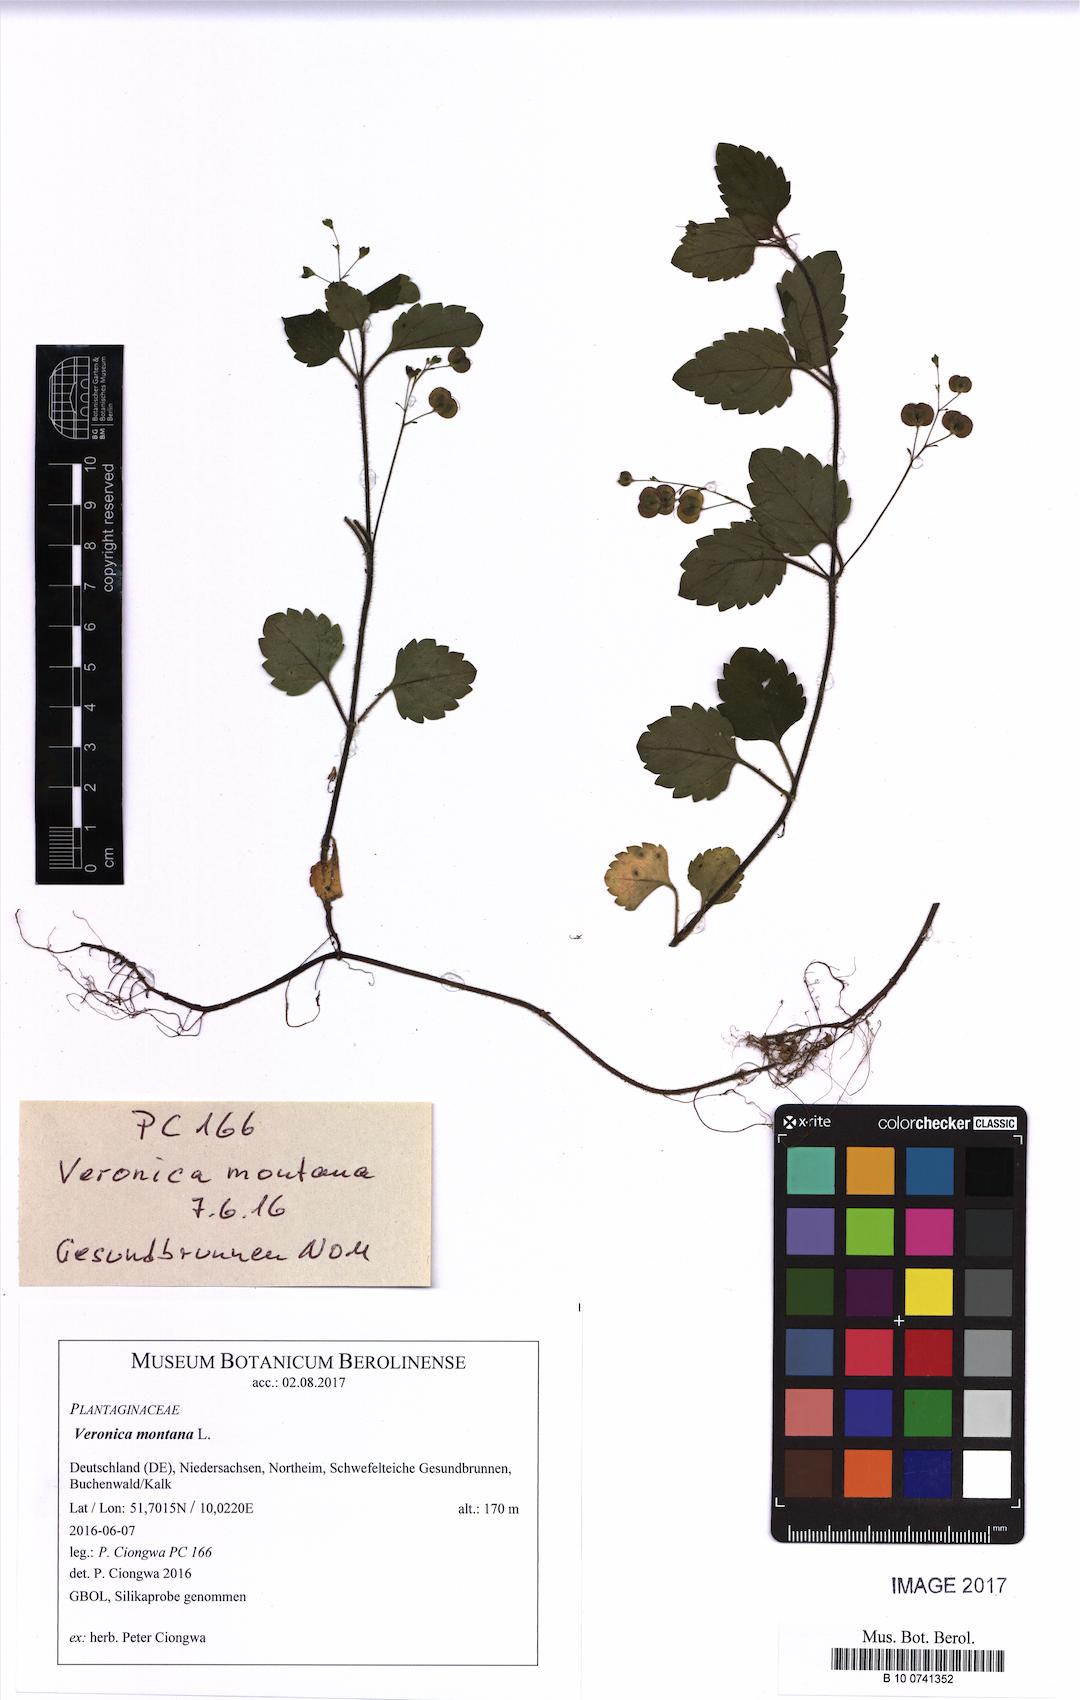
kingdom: Plantae
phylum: Tracheophyta
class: Magnoliopsida
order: Lamiales
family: Plantaginaceae
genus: Veronica
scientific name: Veronica montana
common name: Wood speedwell
